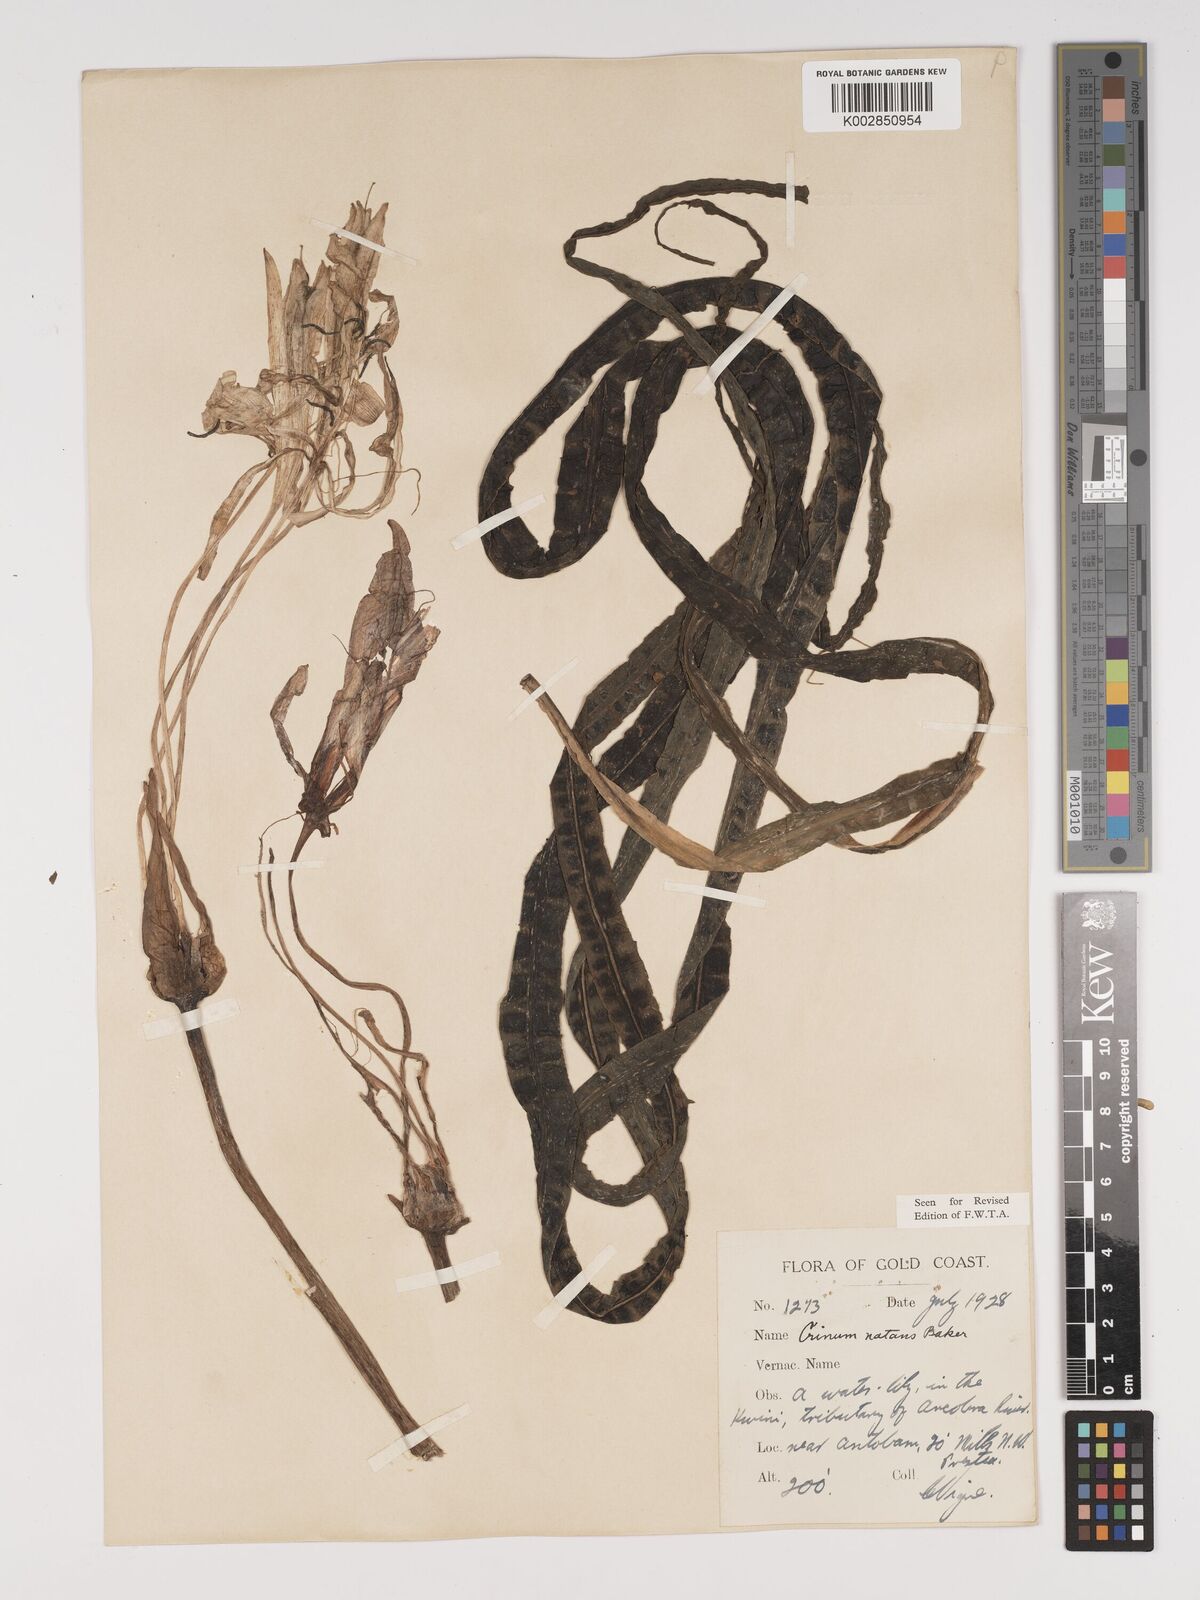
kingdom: Plantae
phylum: Tracheophyta
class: Liliopsida
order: Asparagales
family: Amaryllidaceae
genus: Crinum
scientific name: Crinum moorei
